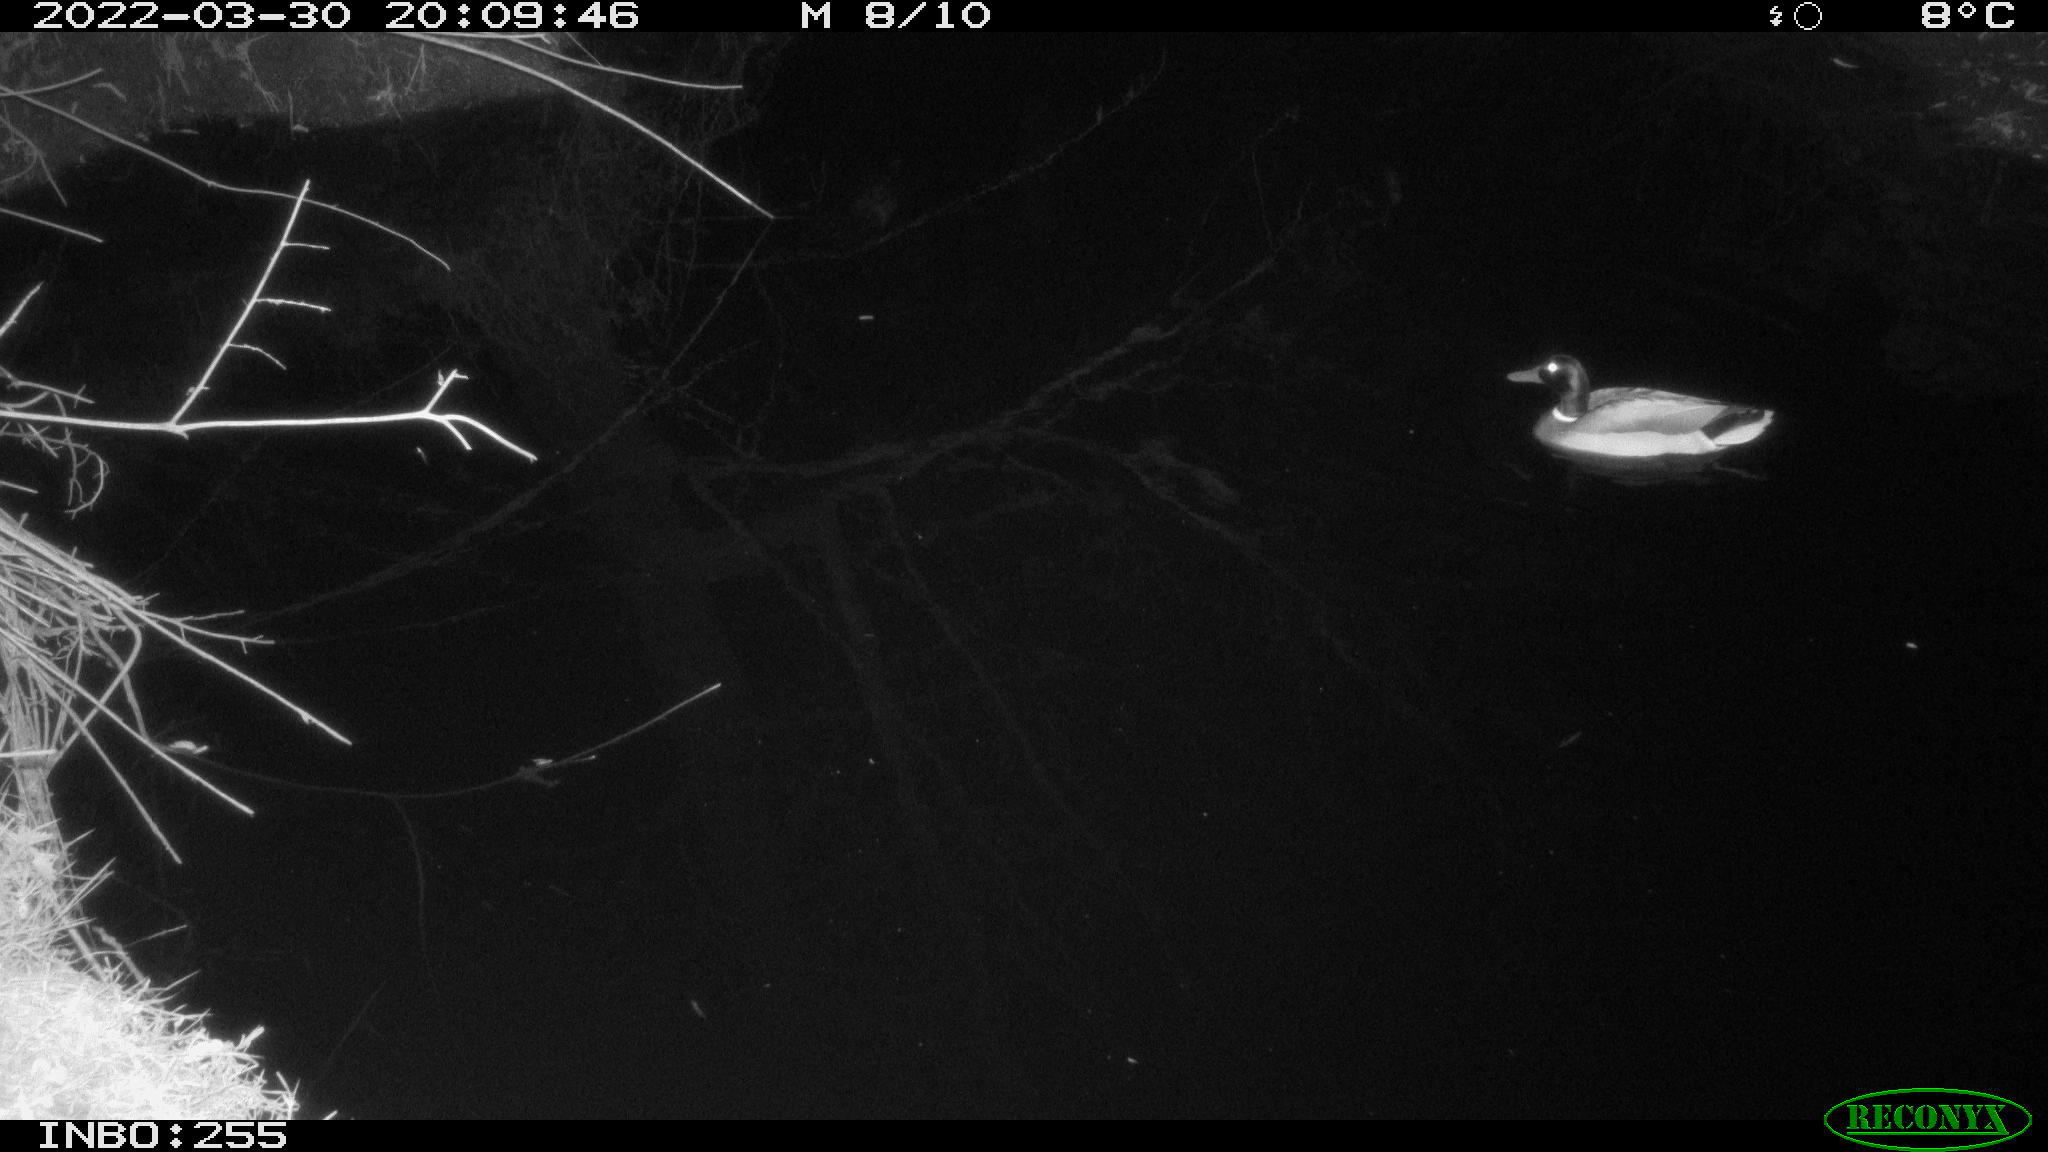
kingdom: Animalia
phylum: Chordata
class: Aves
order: Anseriformes
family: Anatidae
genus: Anas
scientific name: Anas platyrhynchos
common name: Mallard
